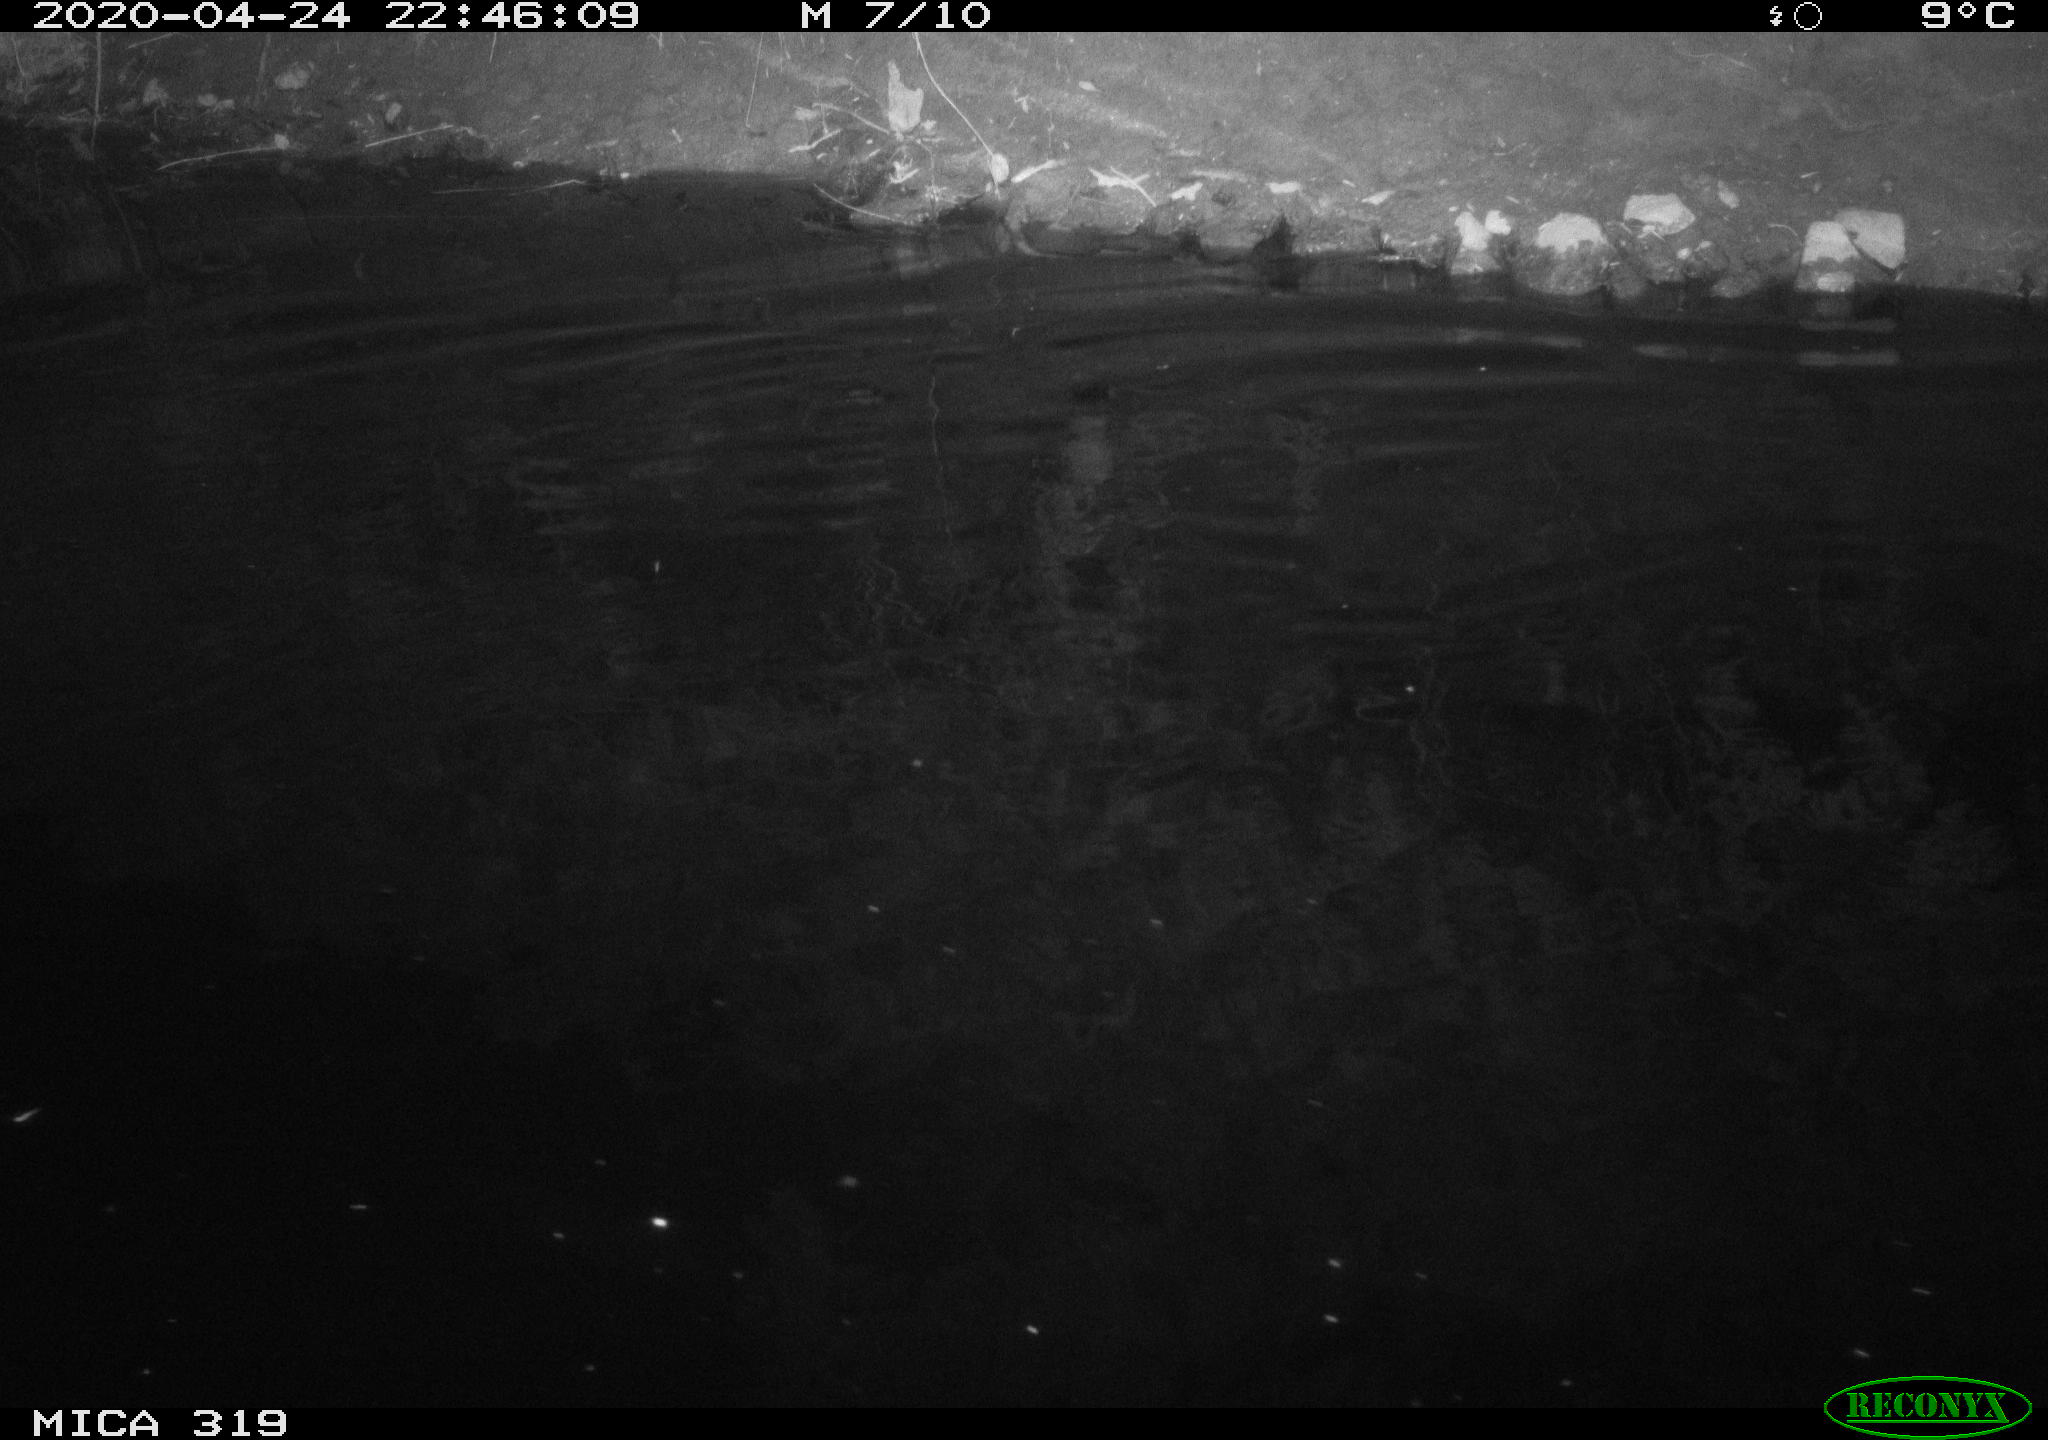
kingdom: Animalia
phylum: Chordata
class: Aves
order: Anseriformes
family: Anatidae
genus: Anas
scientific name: Anas platyrhynchos
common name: Mallard
